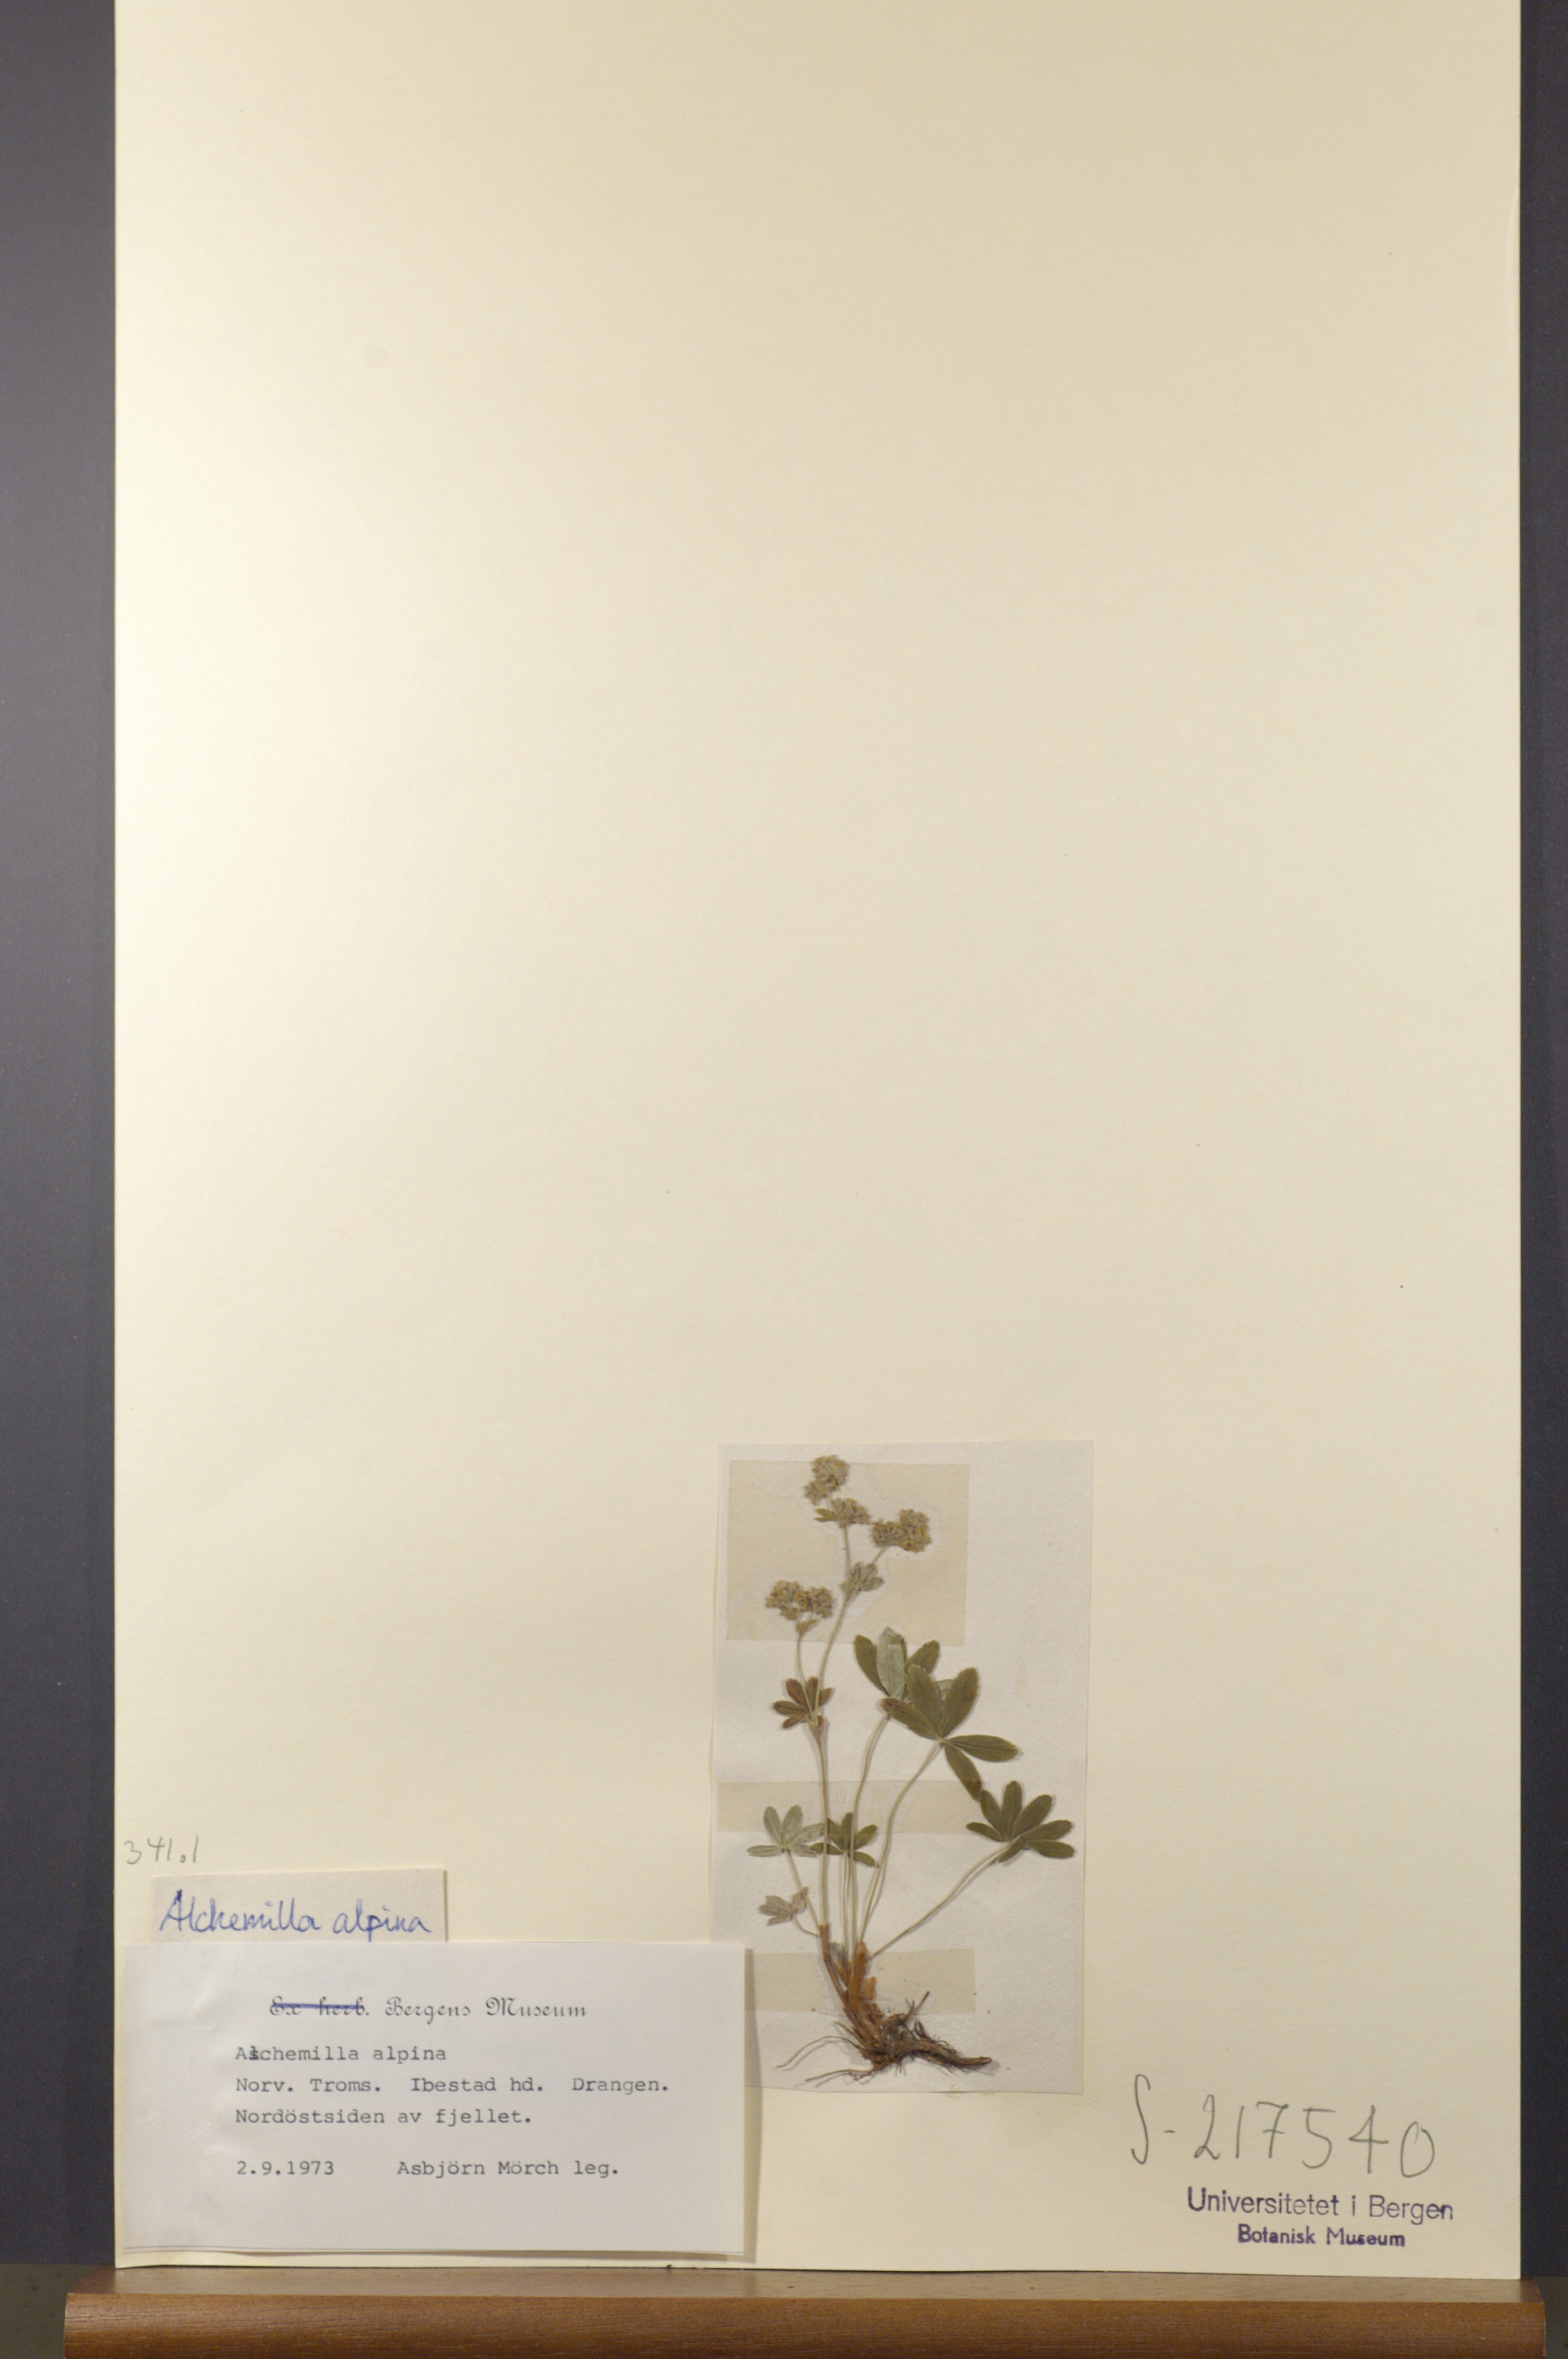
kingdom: Plantae
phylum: Tracheophyta
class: Magnoliopsida
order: Rosales
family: Rosaceae
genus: Alchemilla
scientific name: Alchemilla alpina
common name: Alpine lady's-mantle
